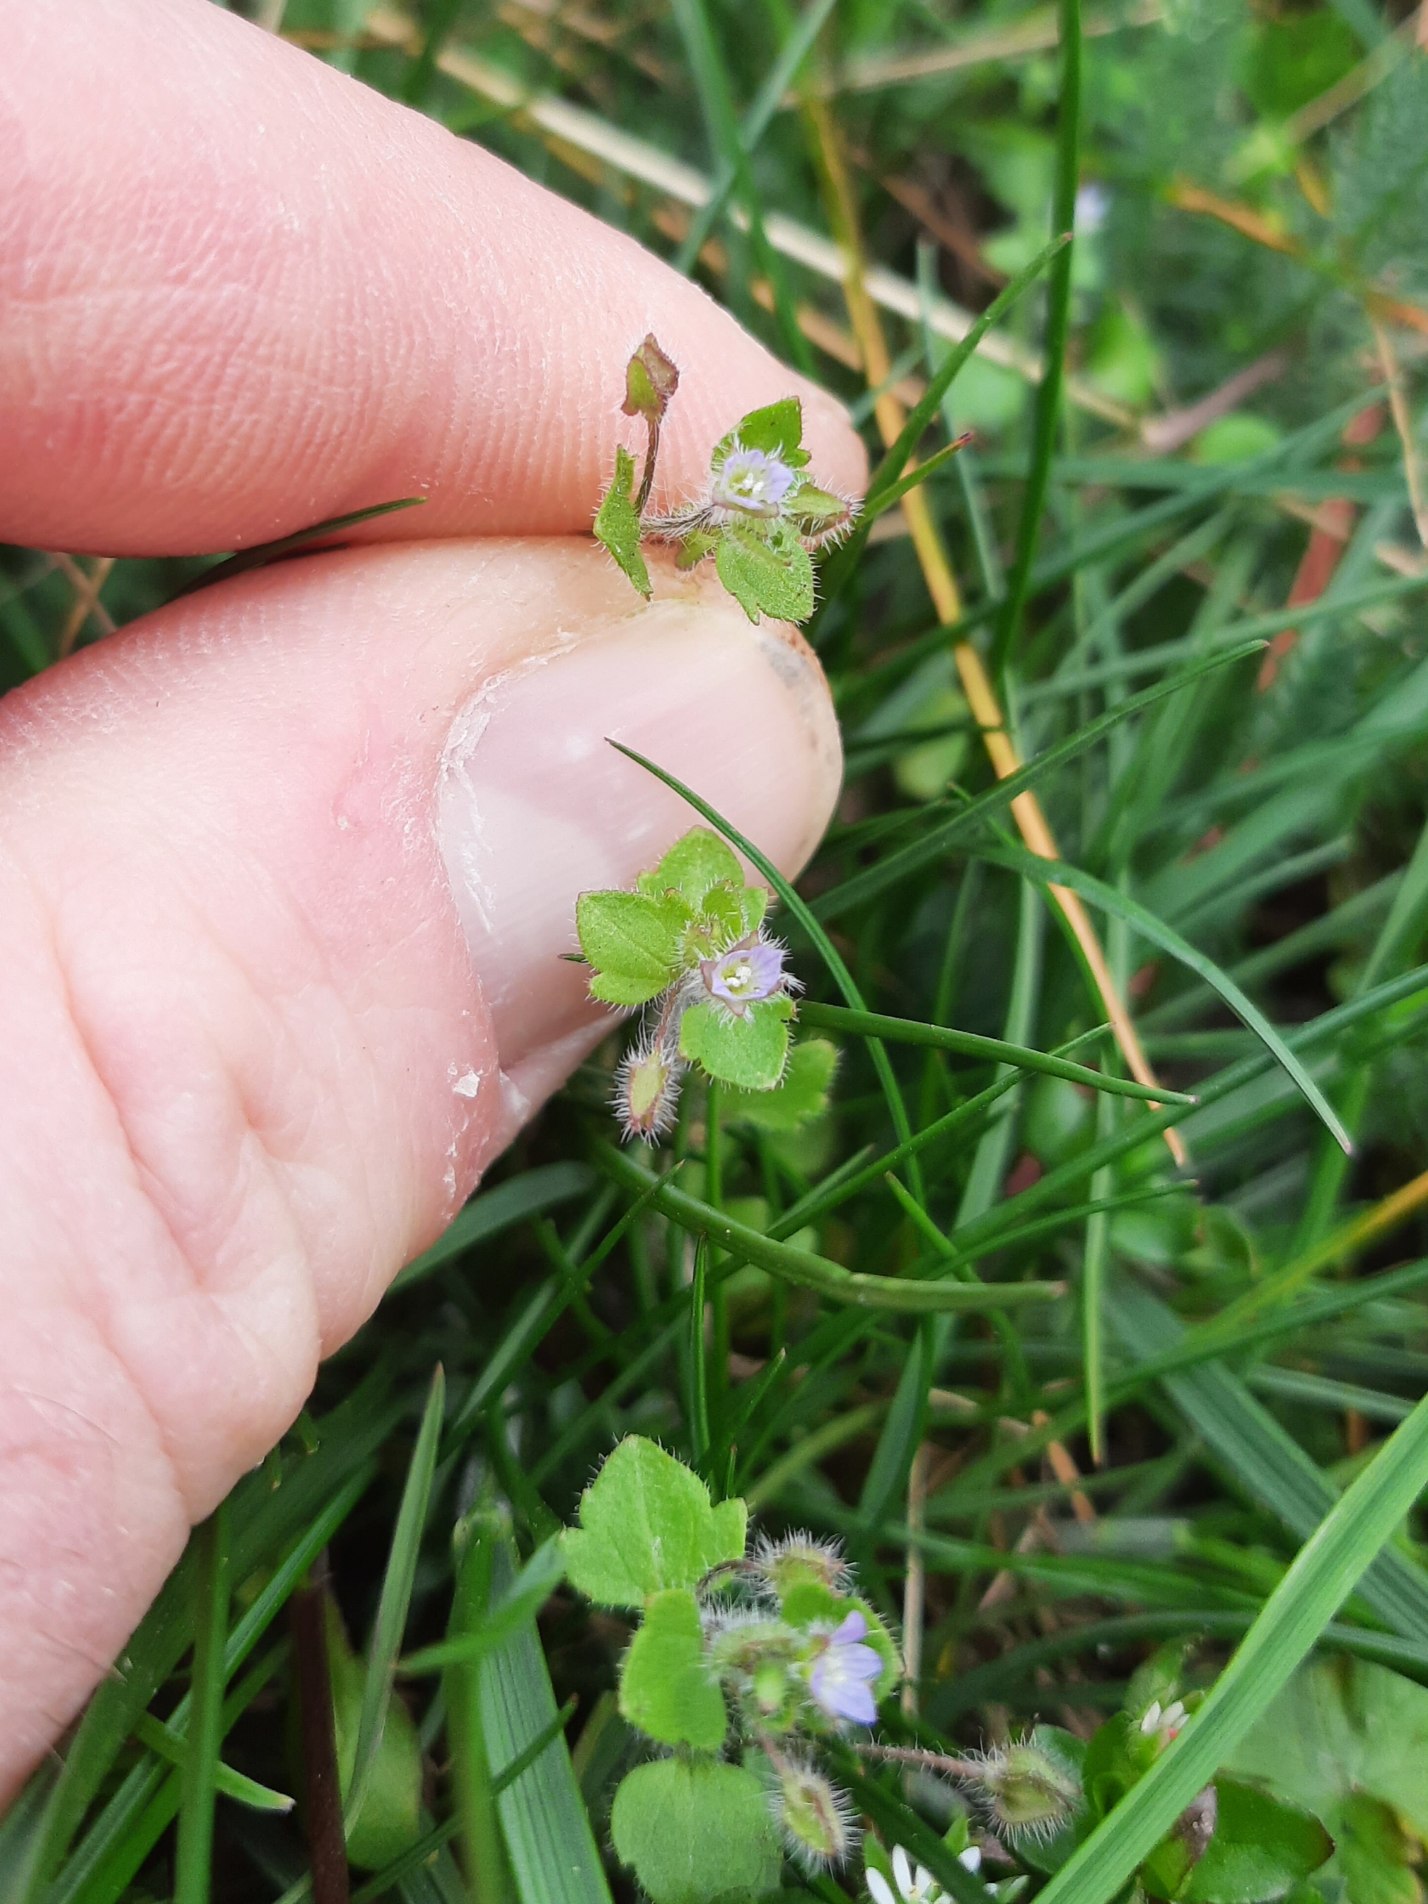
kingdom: Plantae
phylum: Tracheophyta
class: Magnoliopsida
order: Lamiales
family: Plantaginaceae
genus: Veronica
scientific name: Veronica sublobata
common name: Krat-ærenpris
